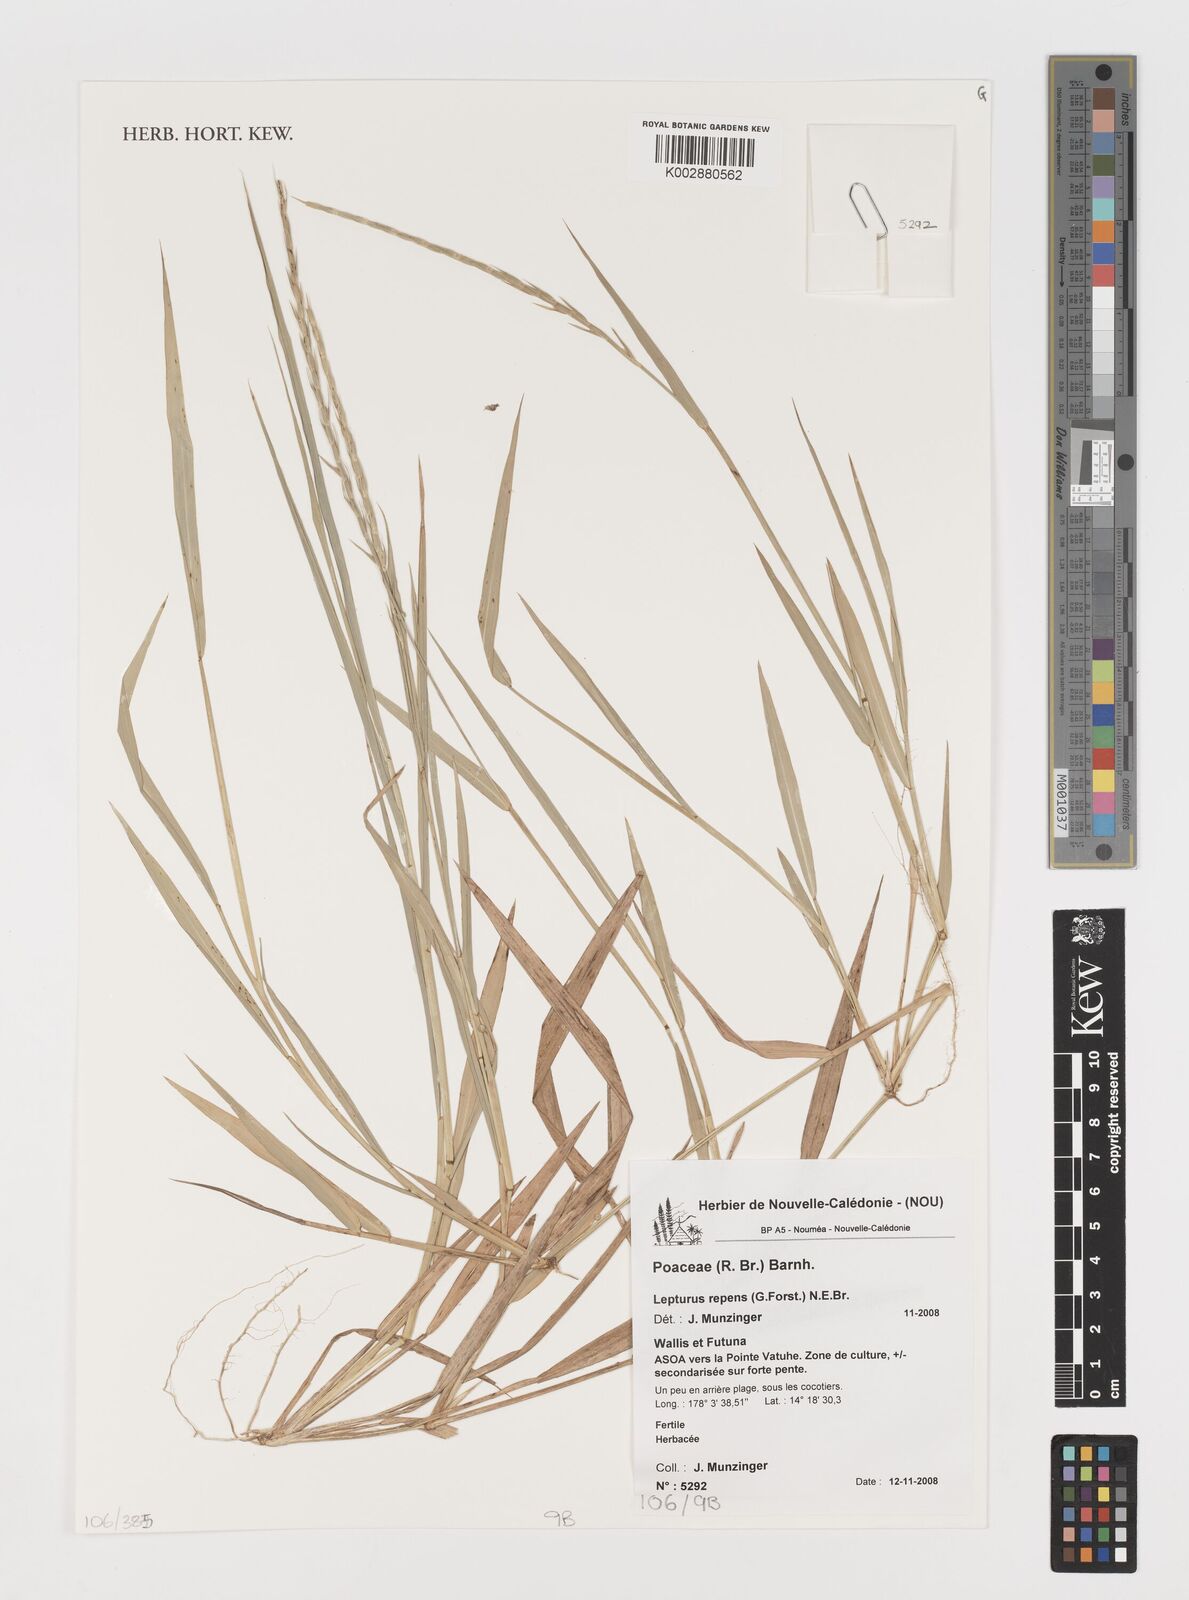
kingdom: Plantae
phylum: Tracheophyta
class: Liliopsida
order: Poales
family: Poaceae
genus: Lepturus
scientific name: Lepturus repens
